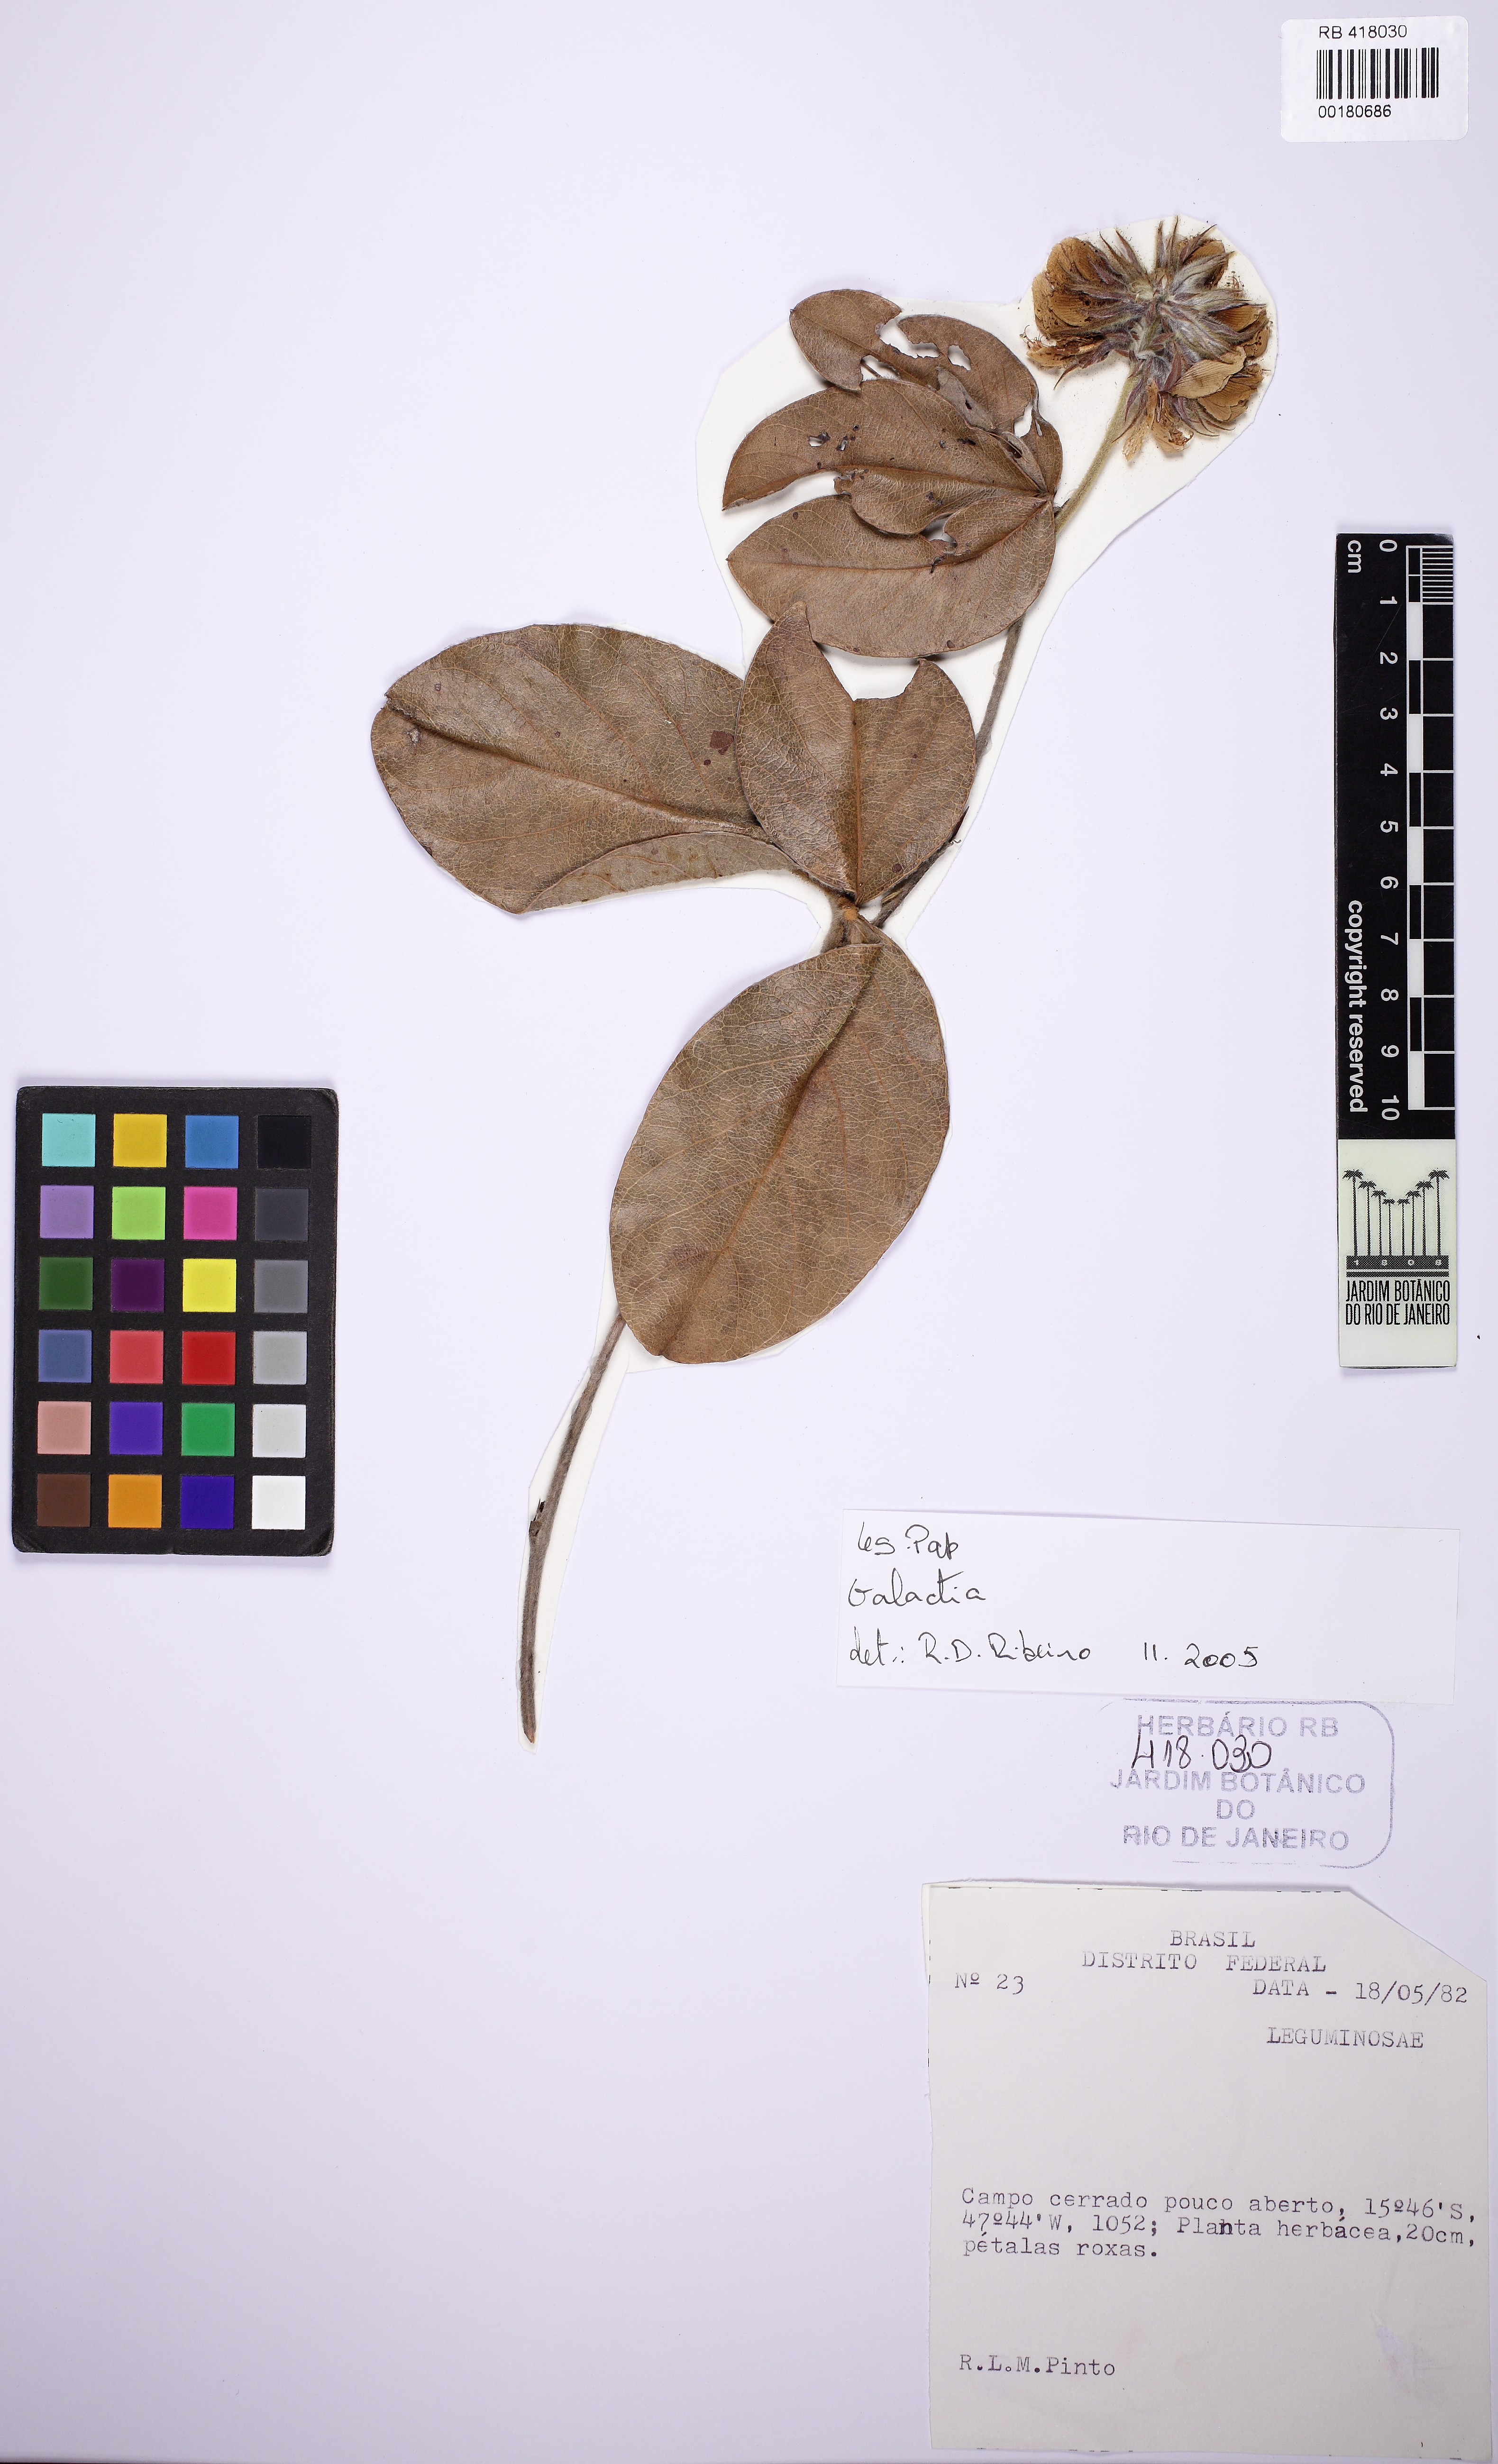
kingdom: Plantae
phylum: Tracheophyta
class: Magnoliopsida
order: Fabales
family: Fabaceae
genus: Betencourtia
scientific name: Betencourtia stereophylla
